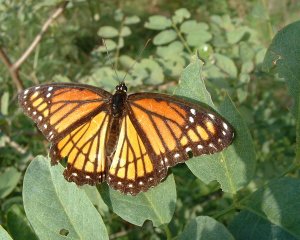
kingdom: Animalia
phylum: Arthropoda
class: Insecta
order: Lepidoptera
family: Nymphalidae
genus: Limenitis
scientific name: Limenitis archippus
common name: Viceroy
